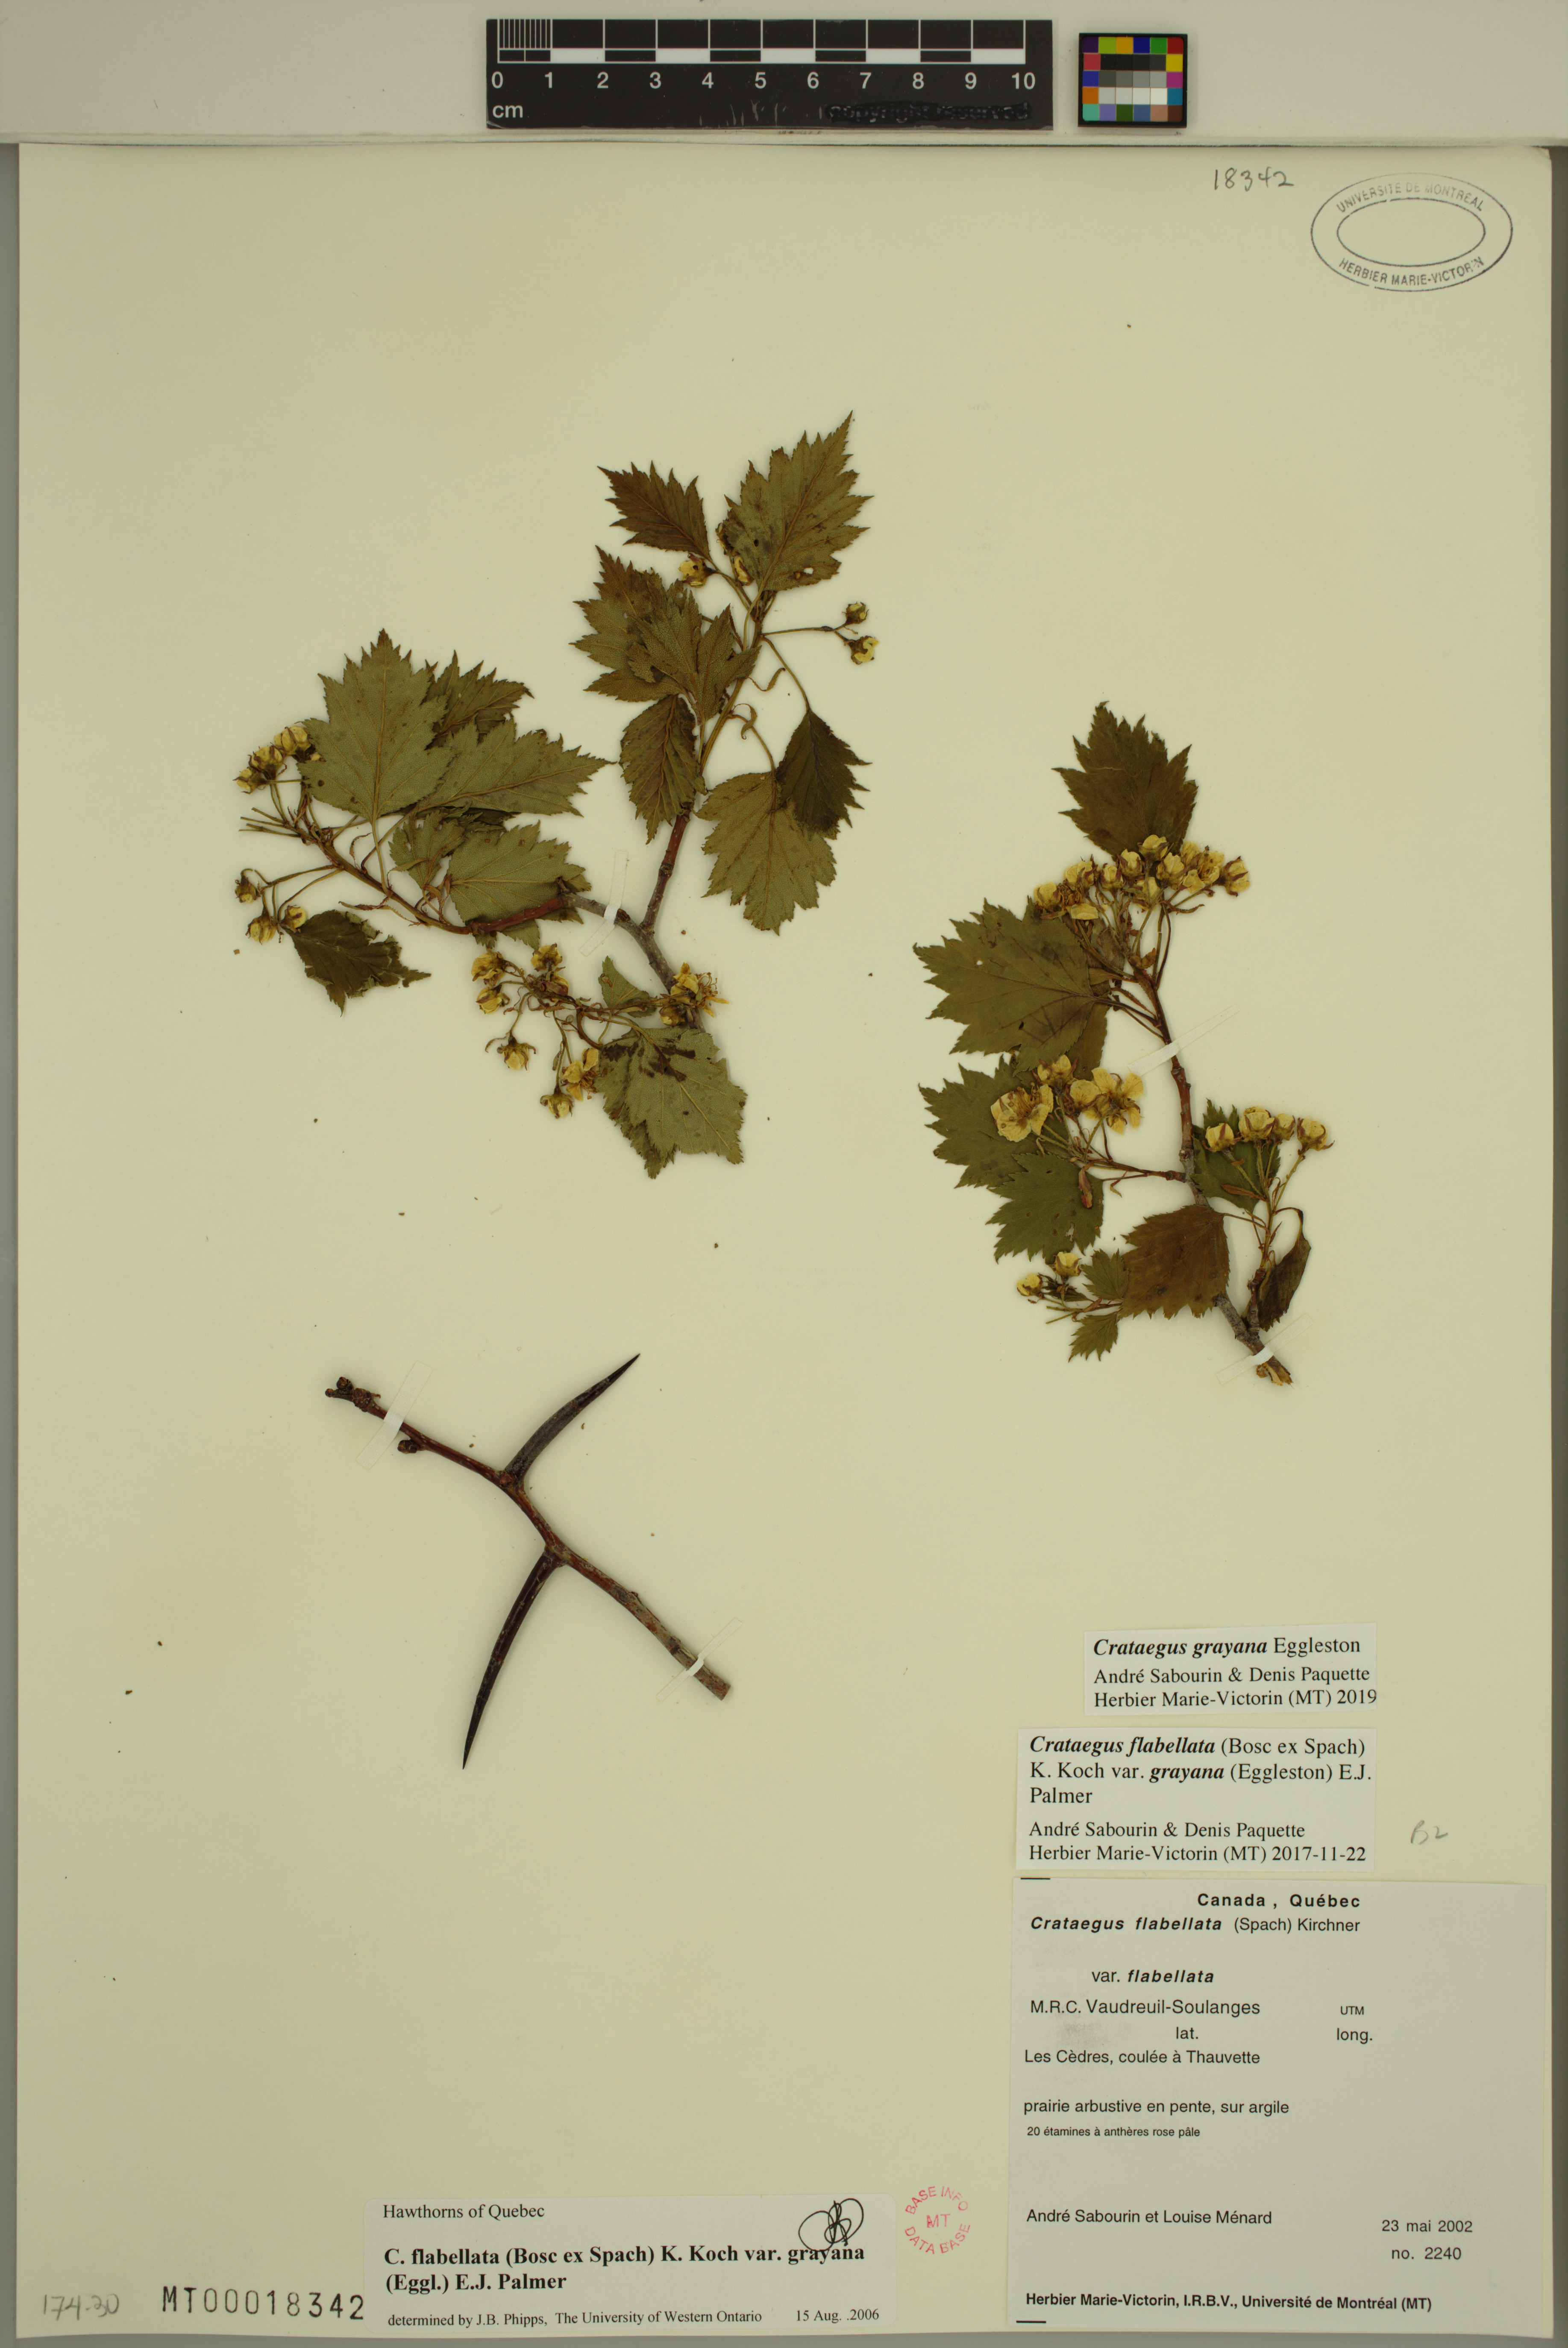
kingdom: Plantae
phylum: Tracheophyta
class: Magnoliopsida
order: Rosales
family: Rosaceae
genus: Crataegus
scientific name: Crataegus schuettei
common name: Schuette's hawthorn
